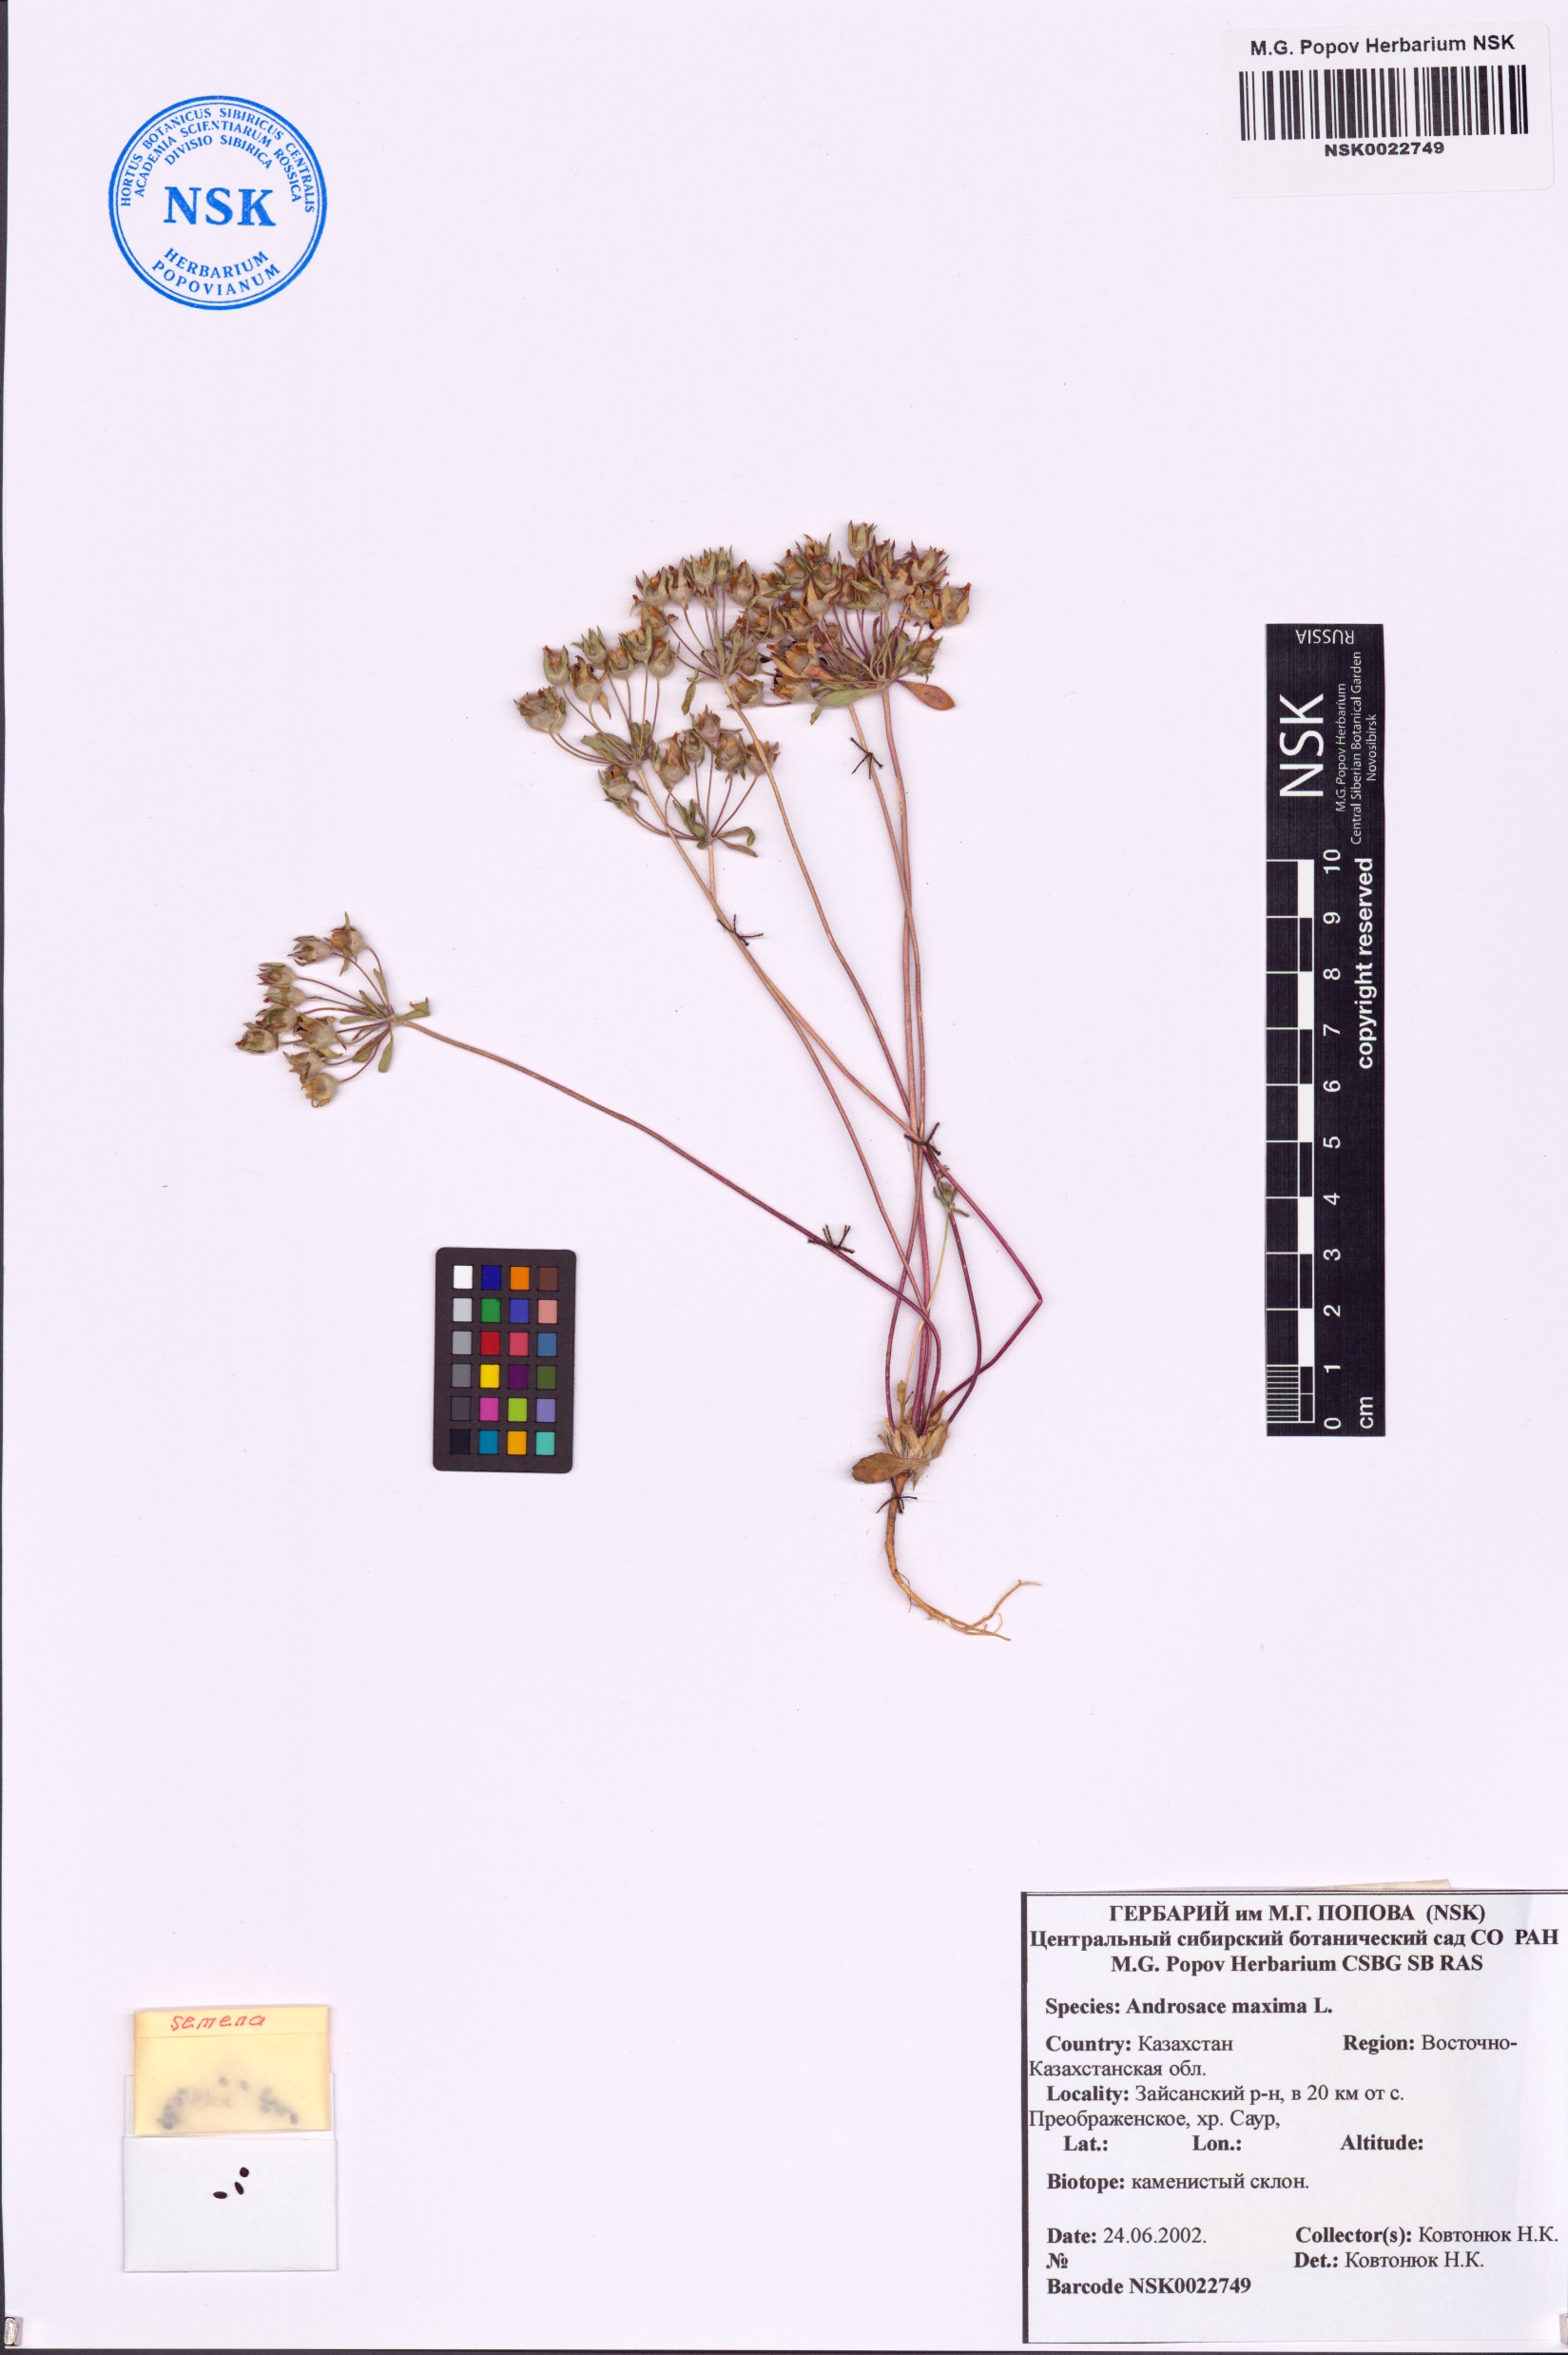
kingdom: Plantae
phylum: Tracheophyta
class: Magnoliopsida
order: Ericales
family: Primulaceae
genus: Androsace
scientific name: Androsace maxima
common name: Annual androsace
